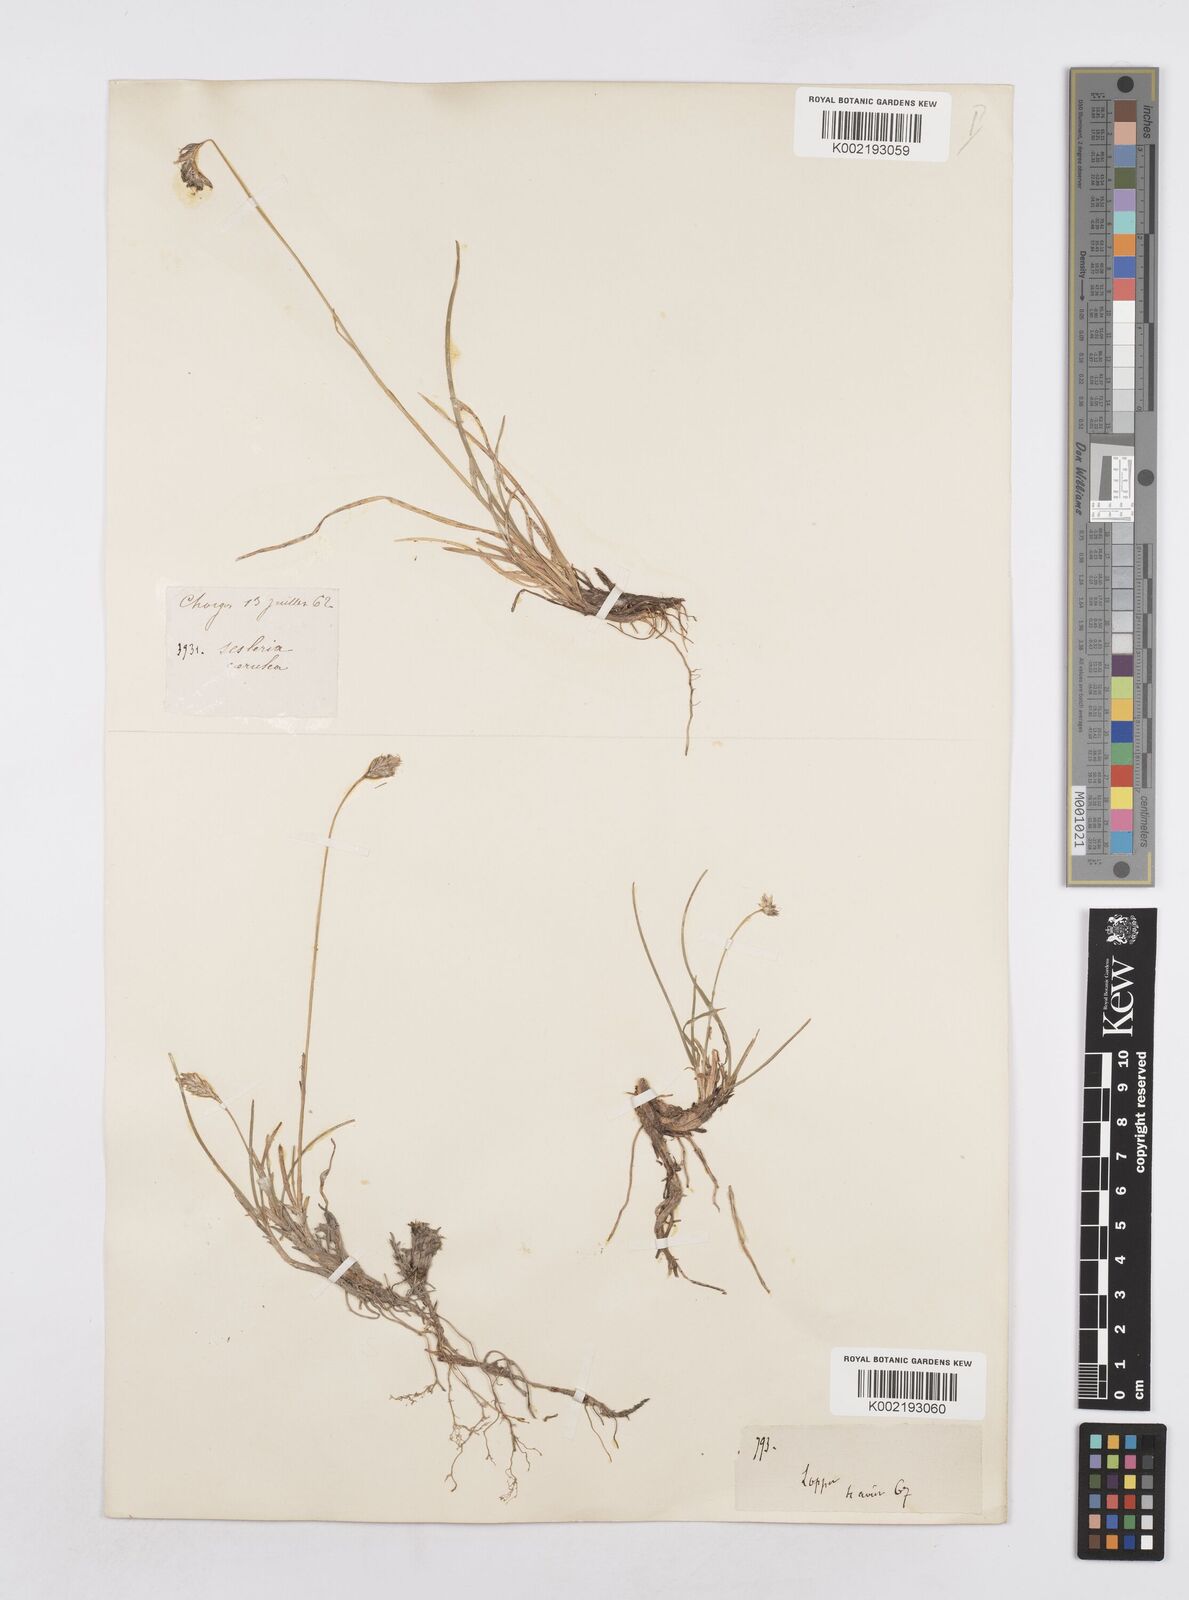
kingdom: Plantae
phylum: Tracheophyta
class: Liliopsida
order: Poales
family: Poaceae
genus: Sesleria
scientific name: Sesleria caerulea
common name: Blue moor-grass
